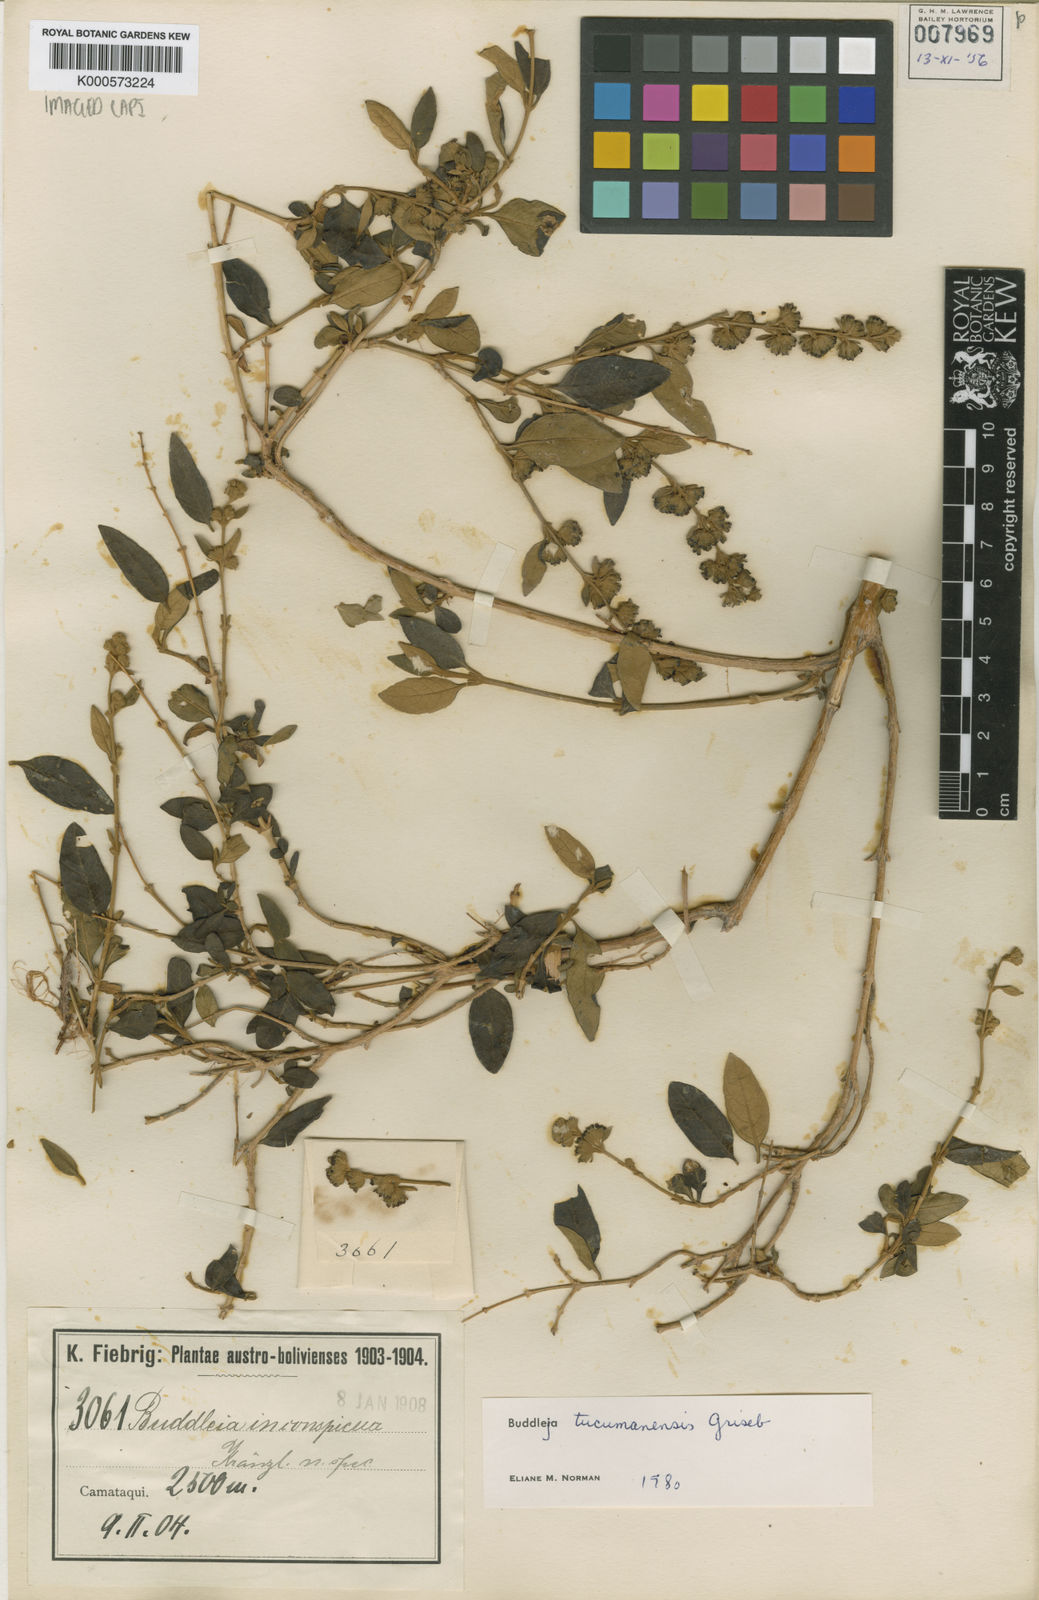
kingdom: Plantae
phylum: Tracheophyta
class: Magnoliopsida
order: Lamiales
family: Scrophulariaceae
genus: Buddleja
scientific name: Buddleja tucumanensis
